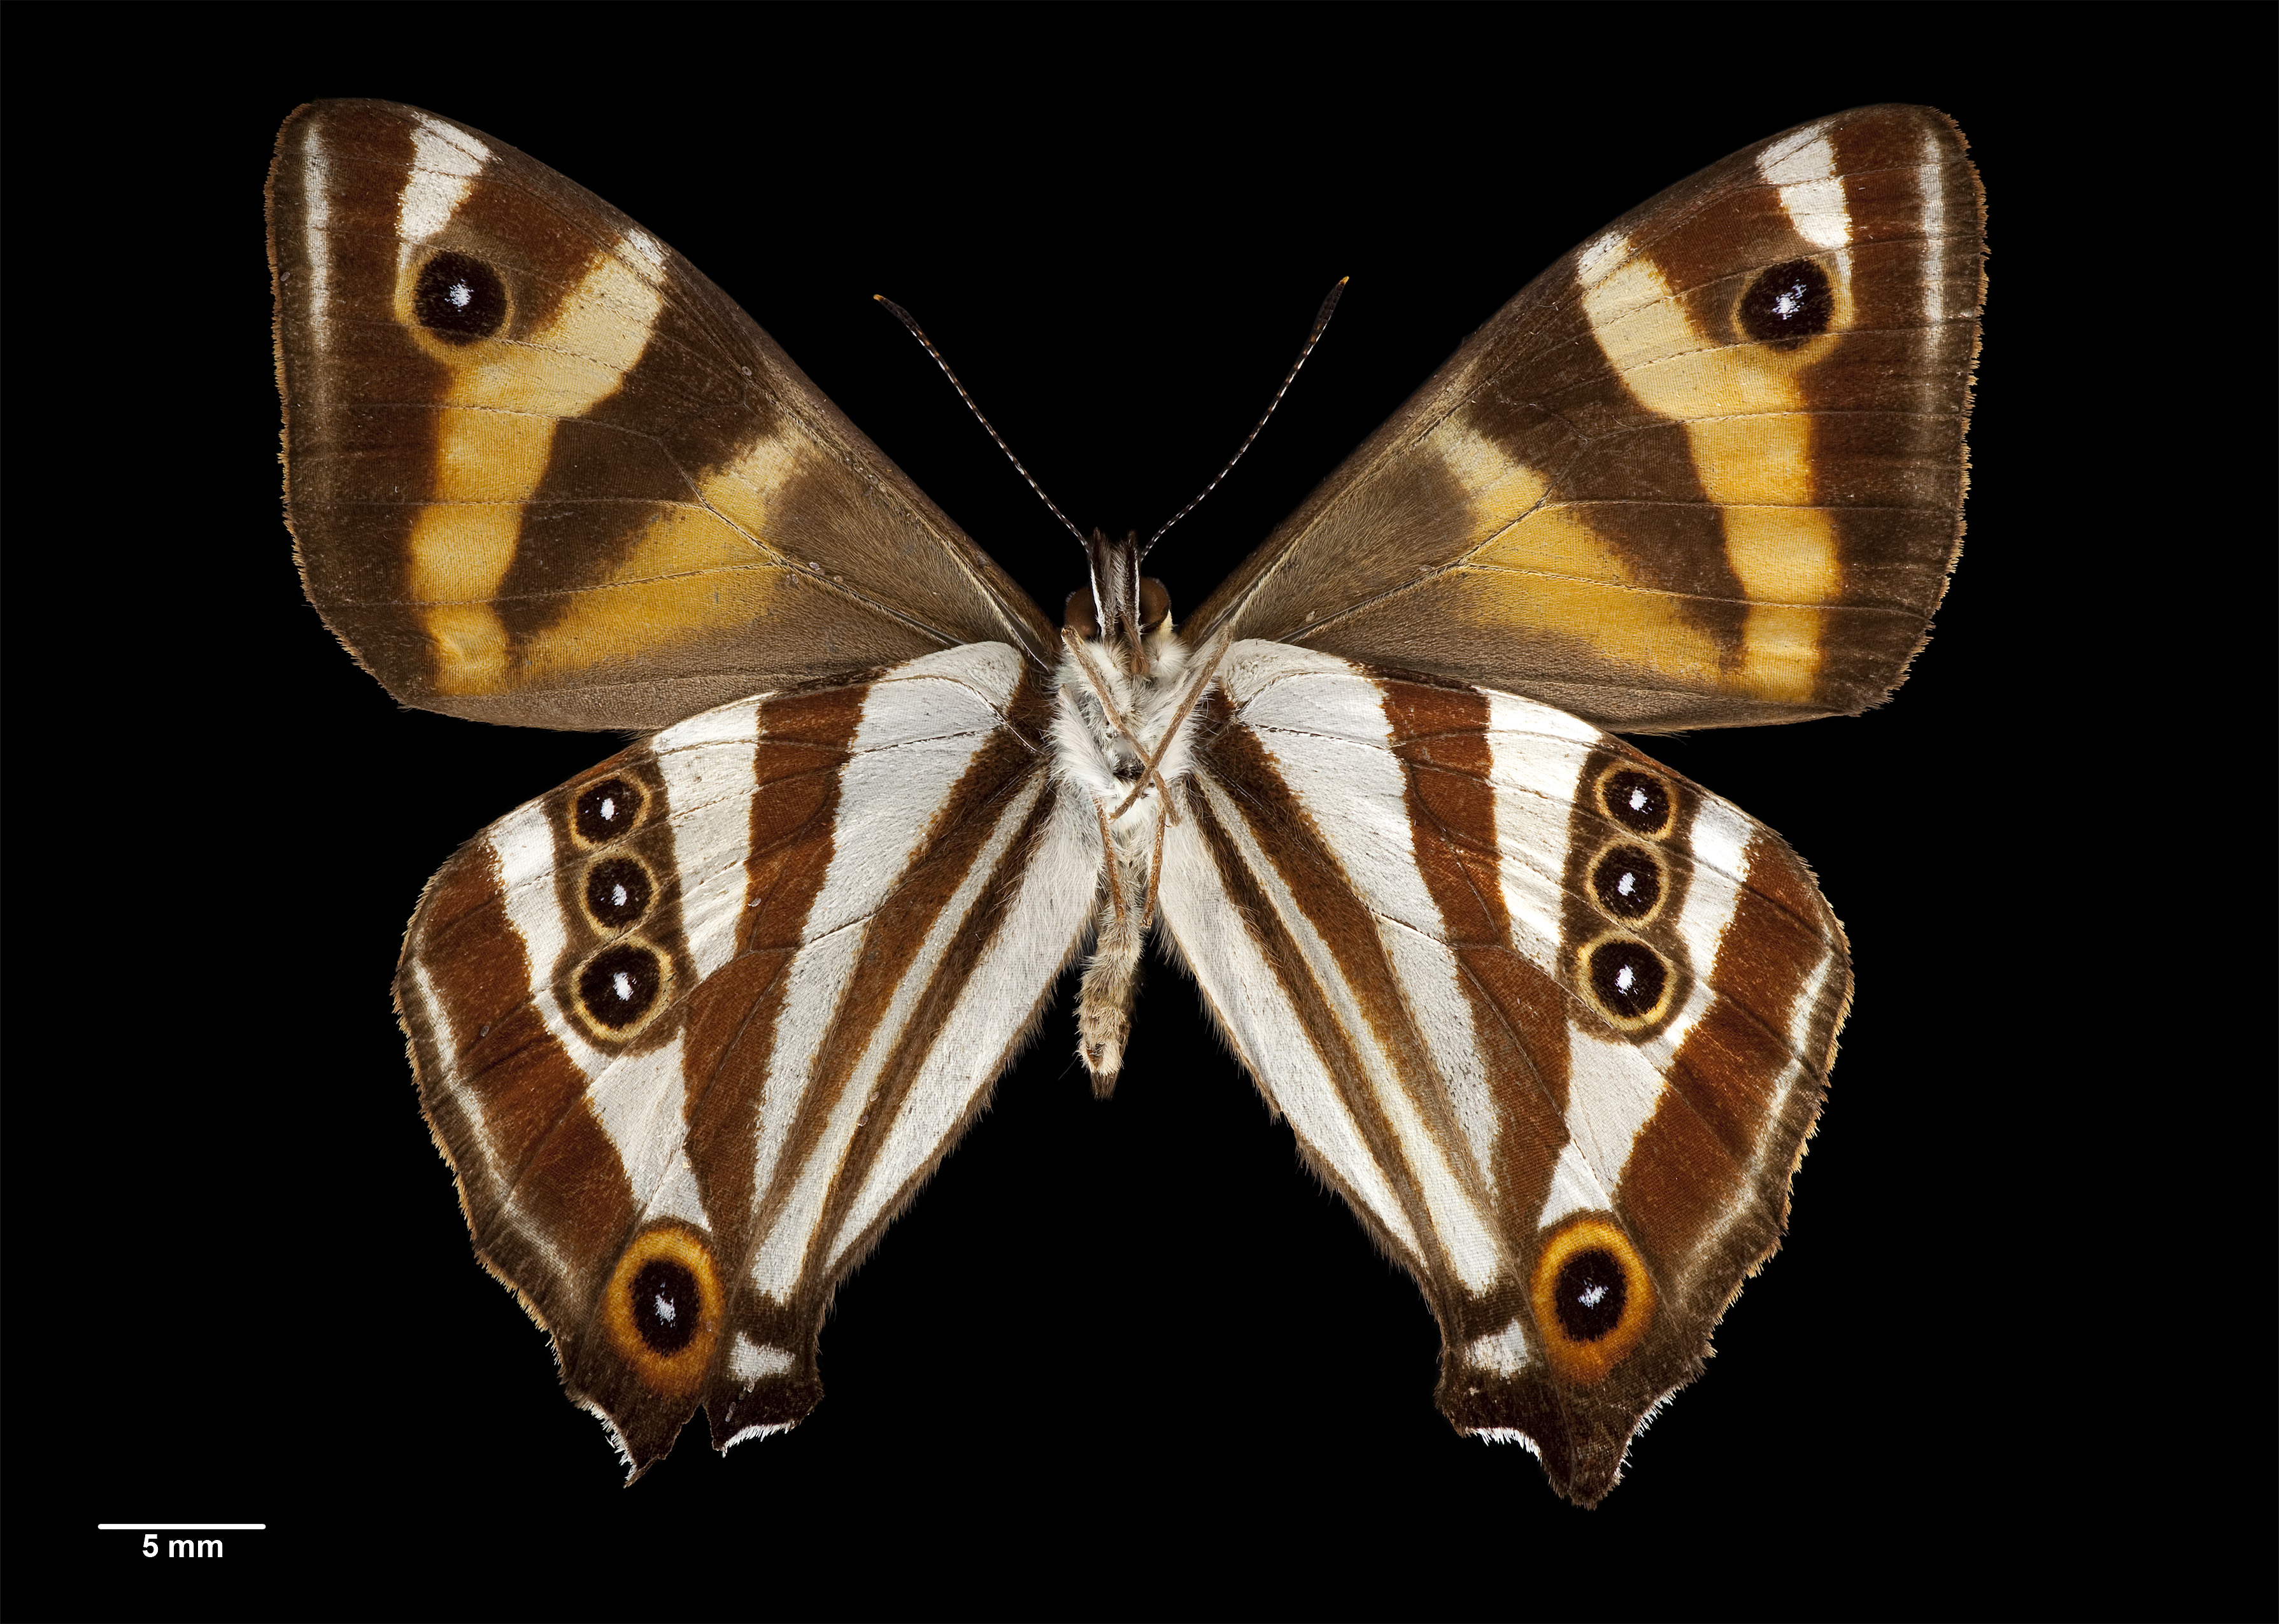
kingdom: Animalia
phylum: Arthropoda
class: Insecta
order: Lepidoptera
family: Nymphalidae
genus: Dodonidia
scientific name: Dodonidia helmsii
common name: Helm's butterfly
